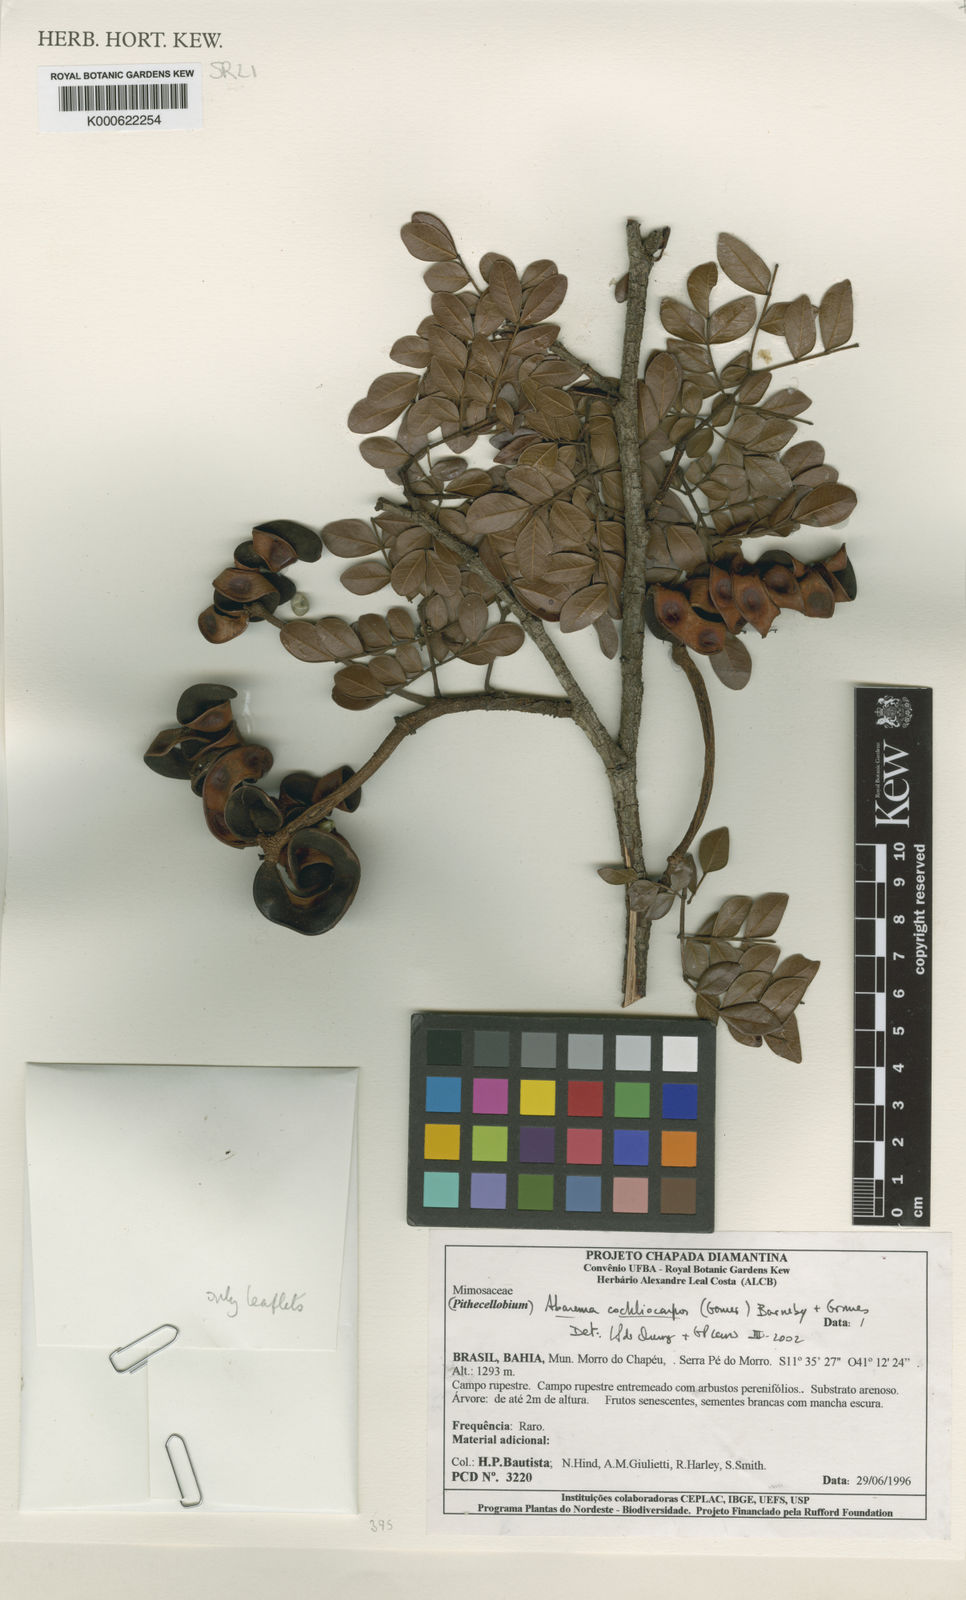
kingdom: Plantae
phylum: Tracheophyta
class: Magnoliopsida
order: Fabales
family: Fabaceae
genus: Abarema
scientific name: Abarema
